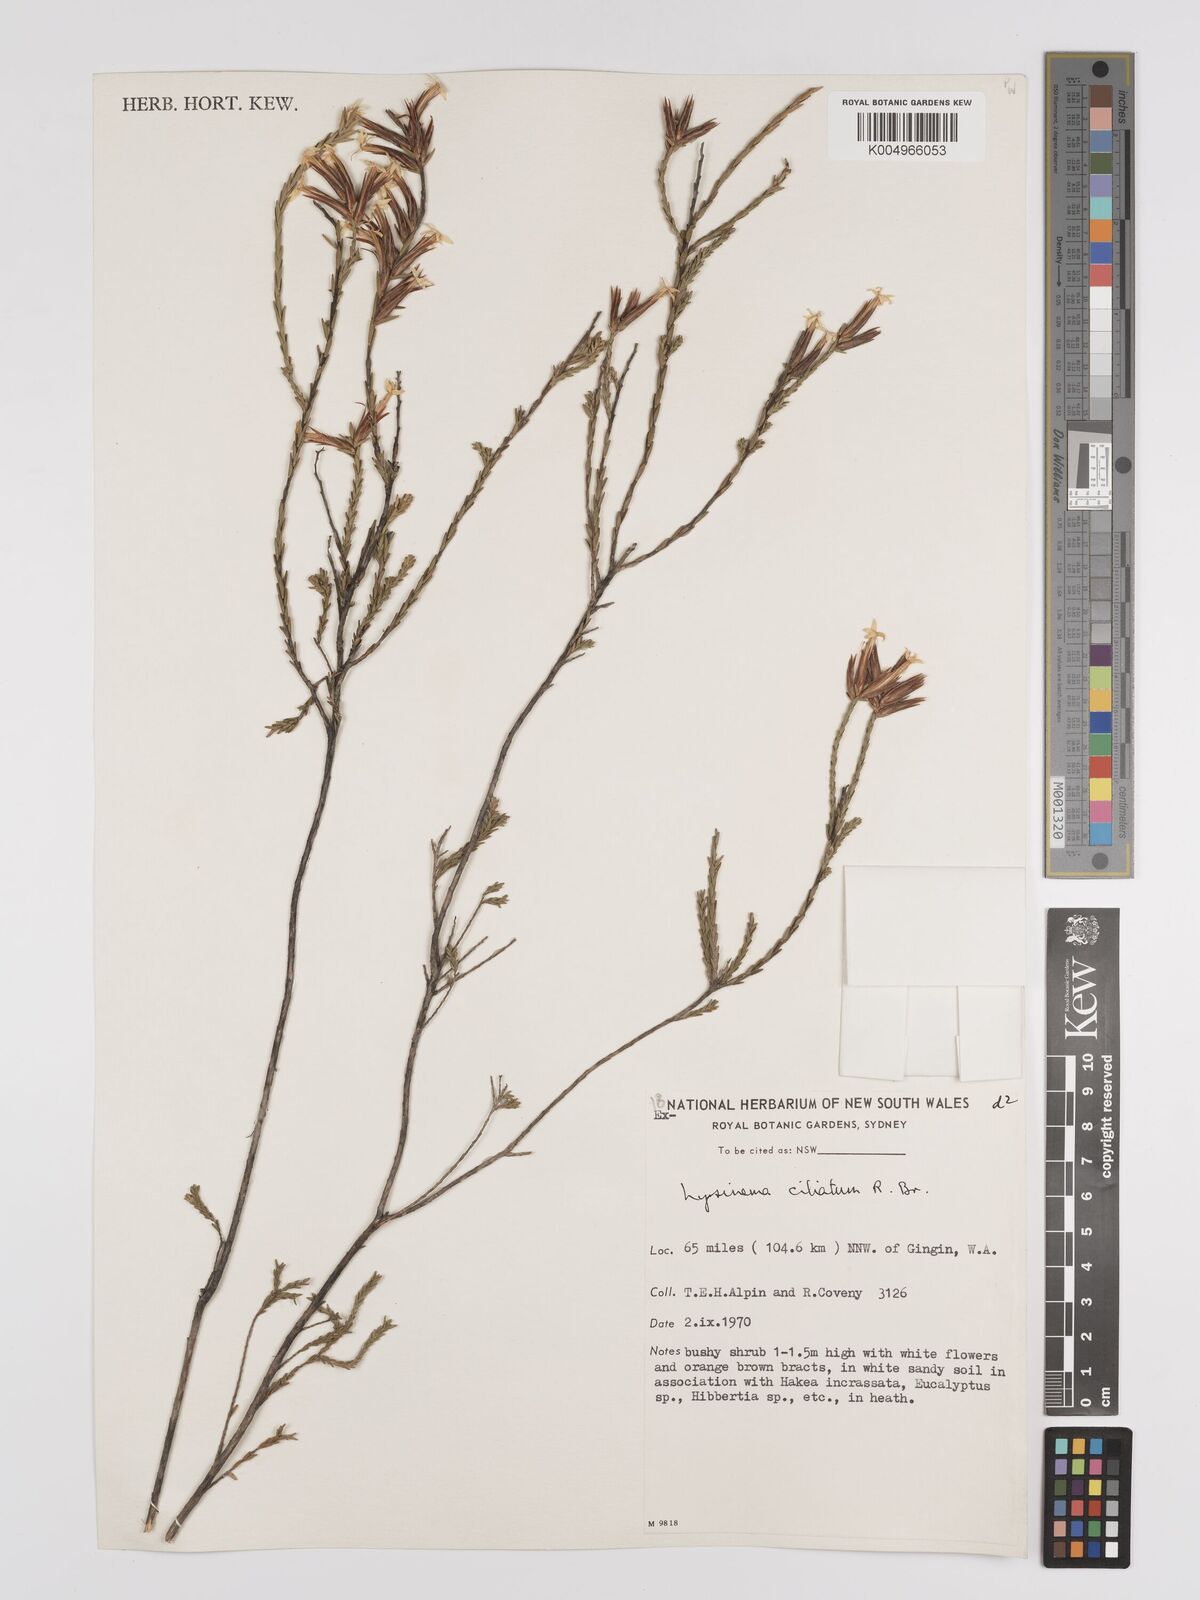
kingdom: Plantae
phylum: Tracheophyta
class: Magnoliopsida
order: Ericales
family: Ericaceae
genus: Lysinema
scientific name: Lysinema ciliatum
